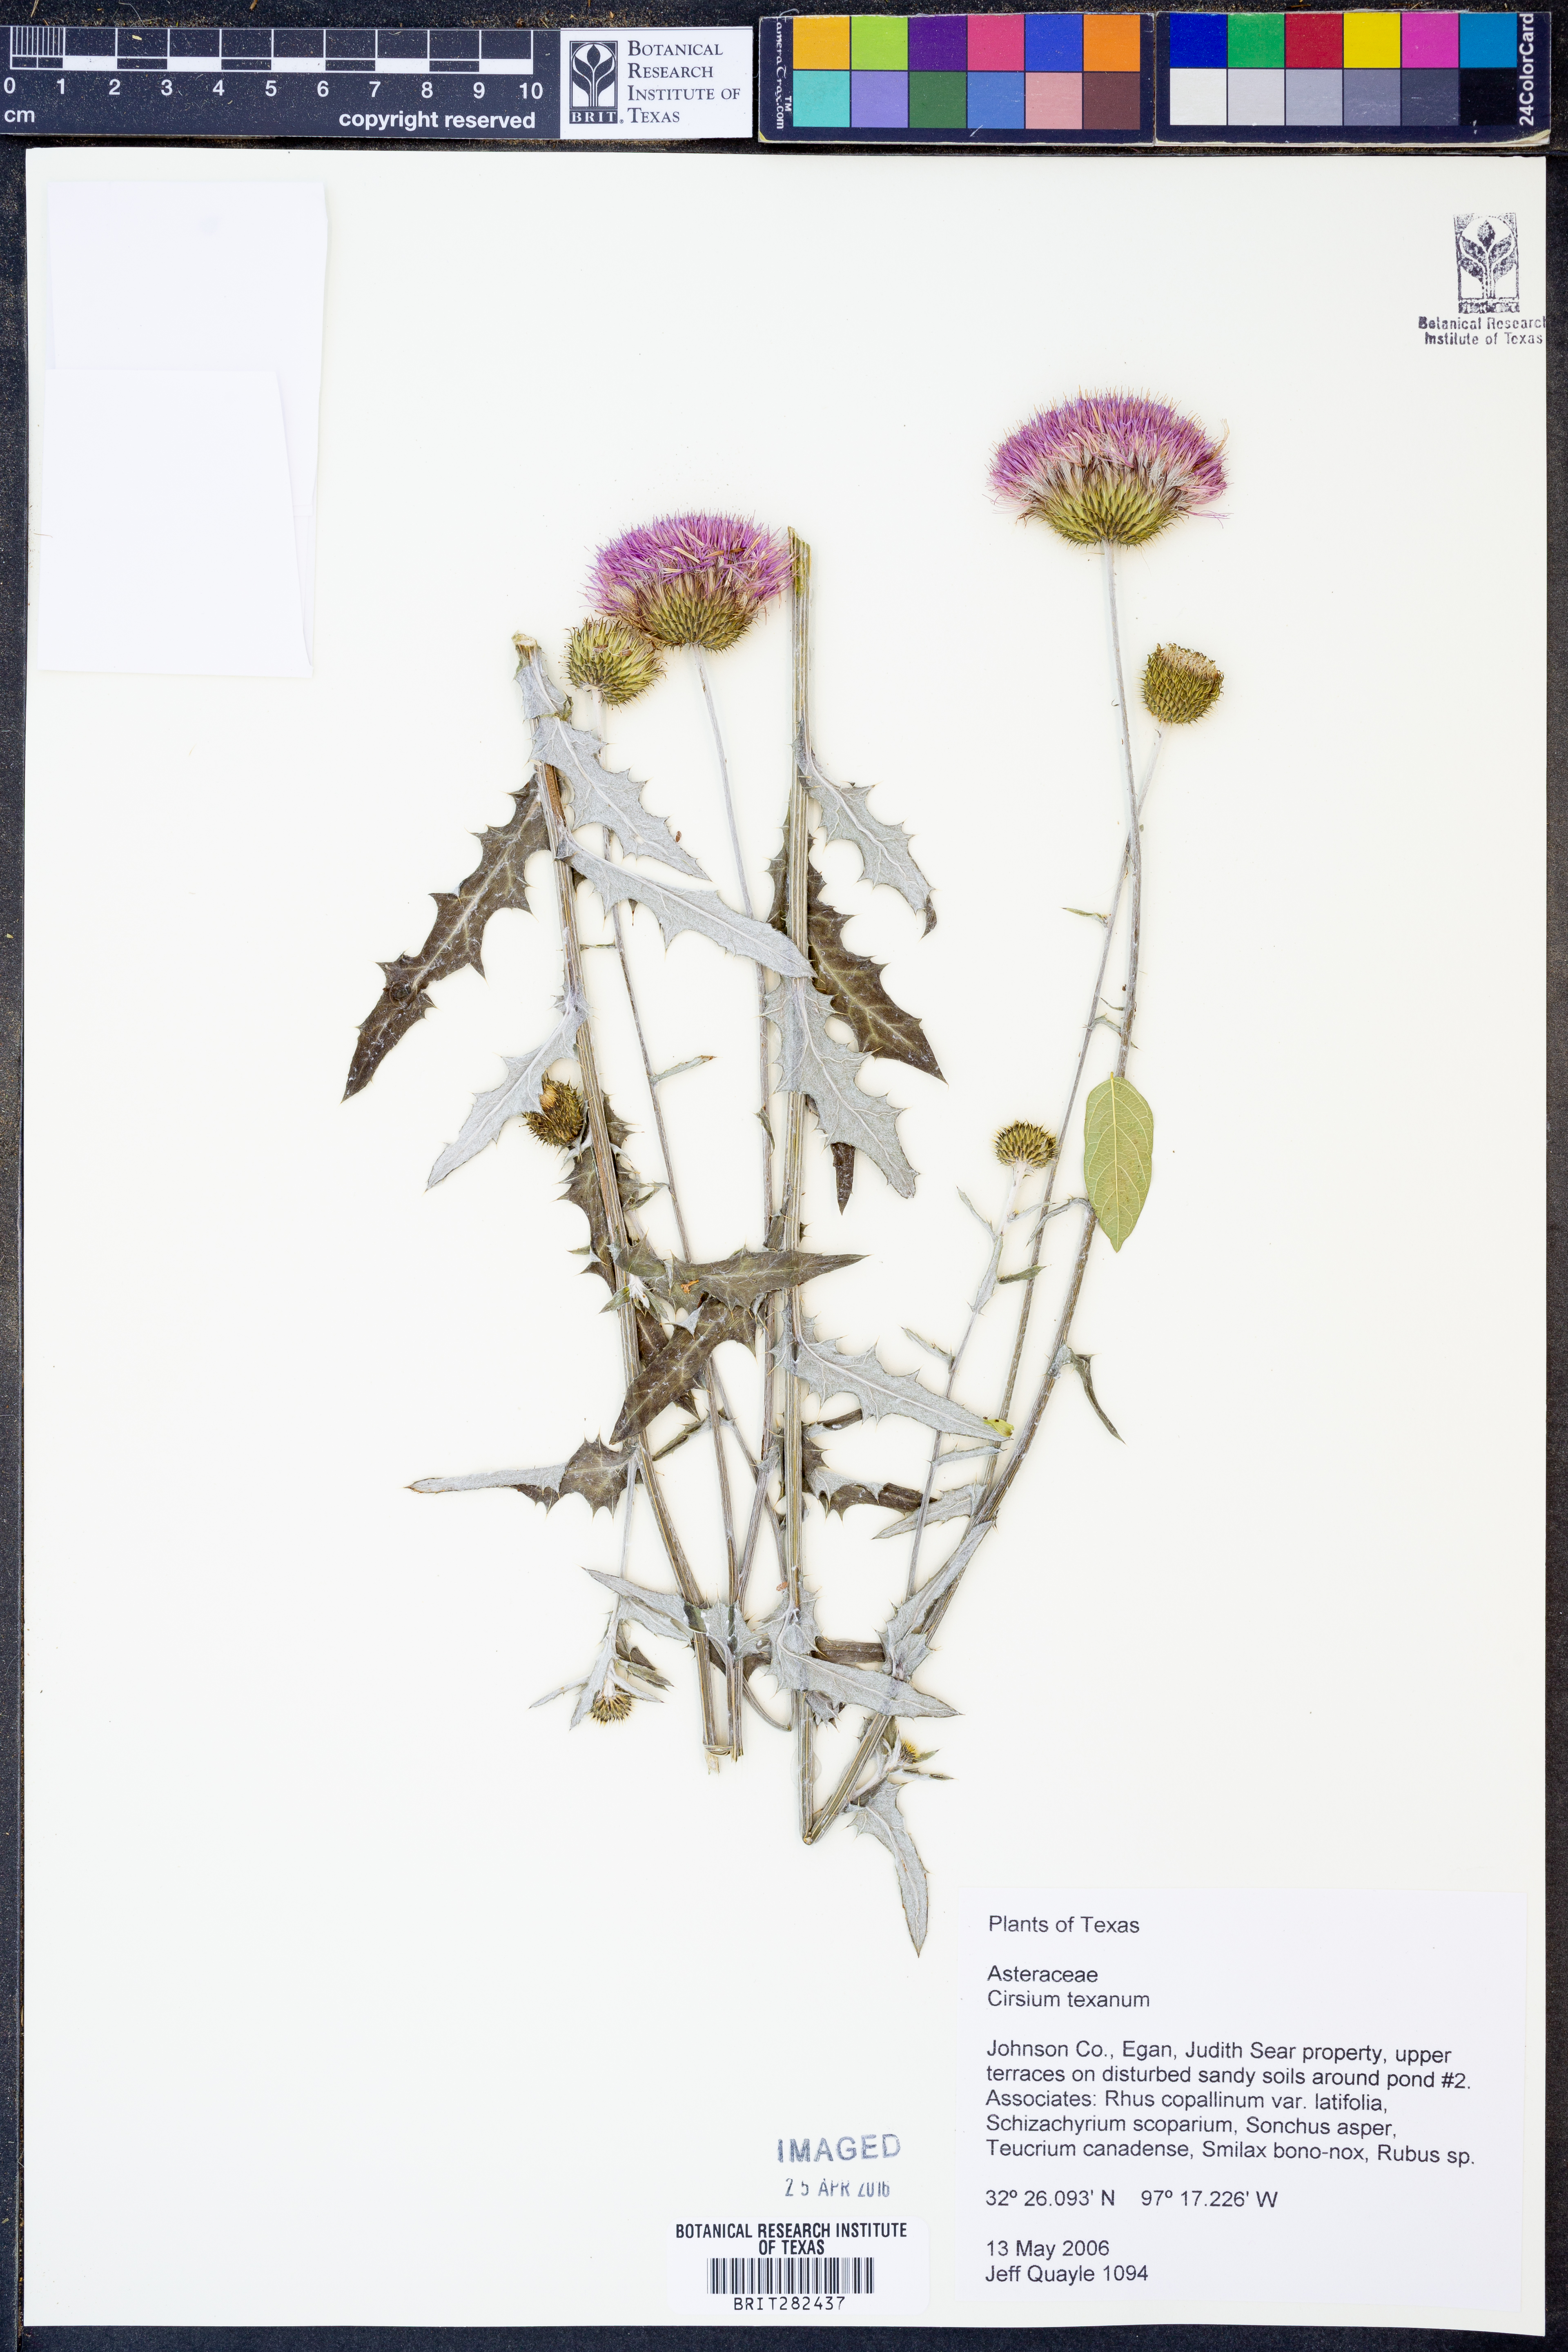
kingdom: Plantae
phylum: Tracheophyta
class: Magnoliopsida
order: Asterales
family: Asteraceae
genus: Cirsium
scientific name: Cirsium texanum
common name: Texas purple thistle
